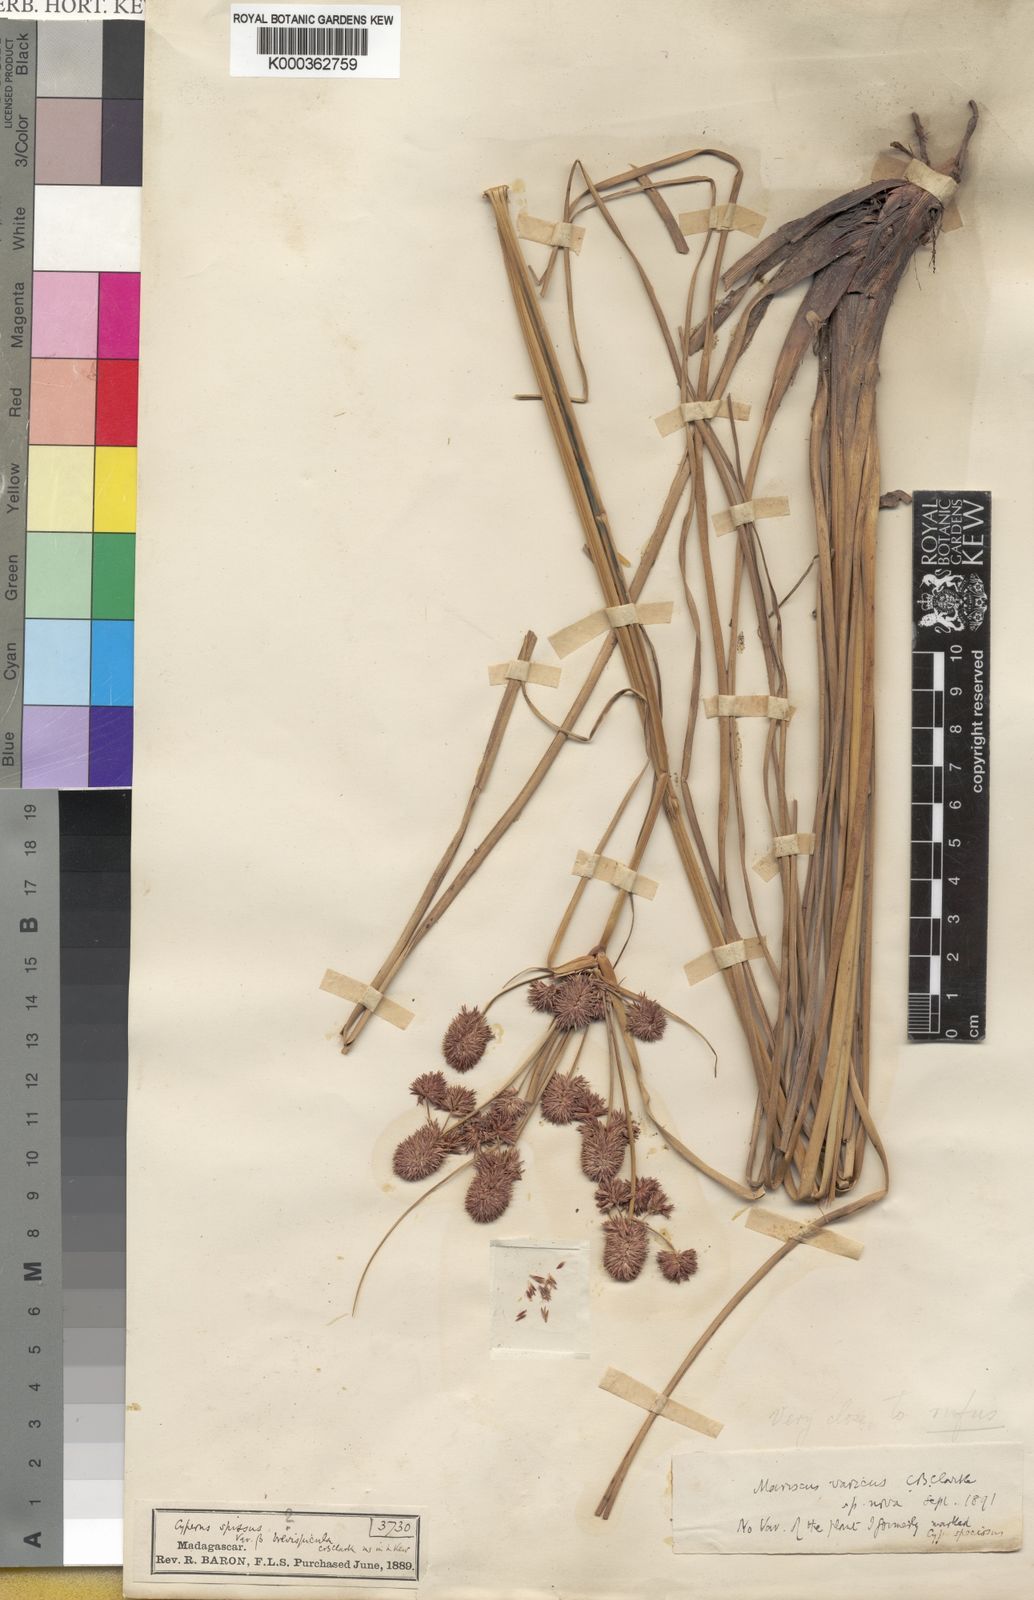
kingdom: Plantae
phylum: Tracheophyta
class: Liliopsida
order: Poales
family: Cyperaceae
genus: Cyperus
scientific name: Cyperus
